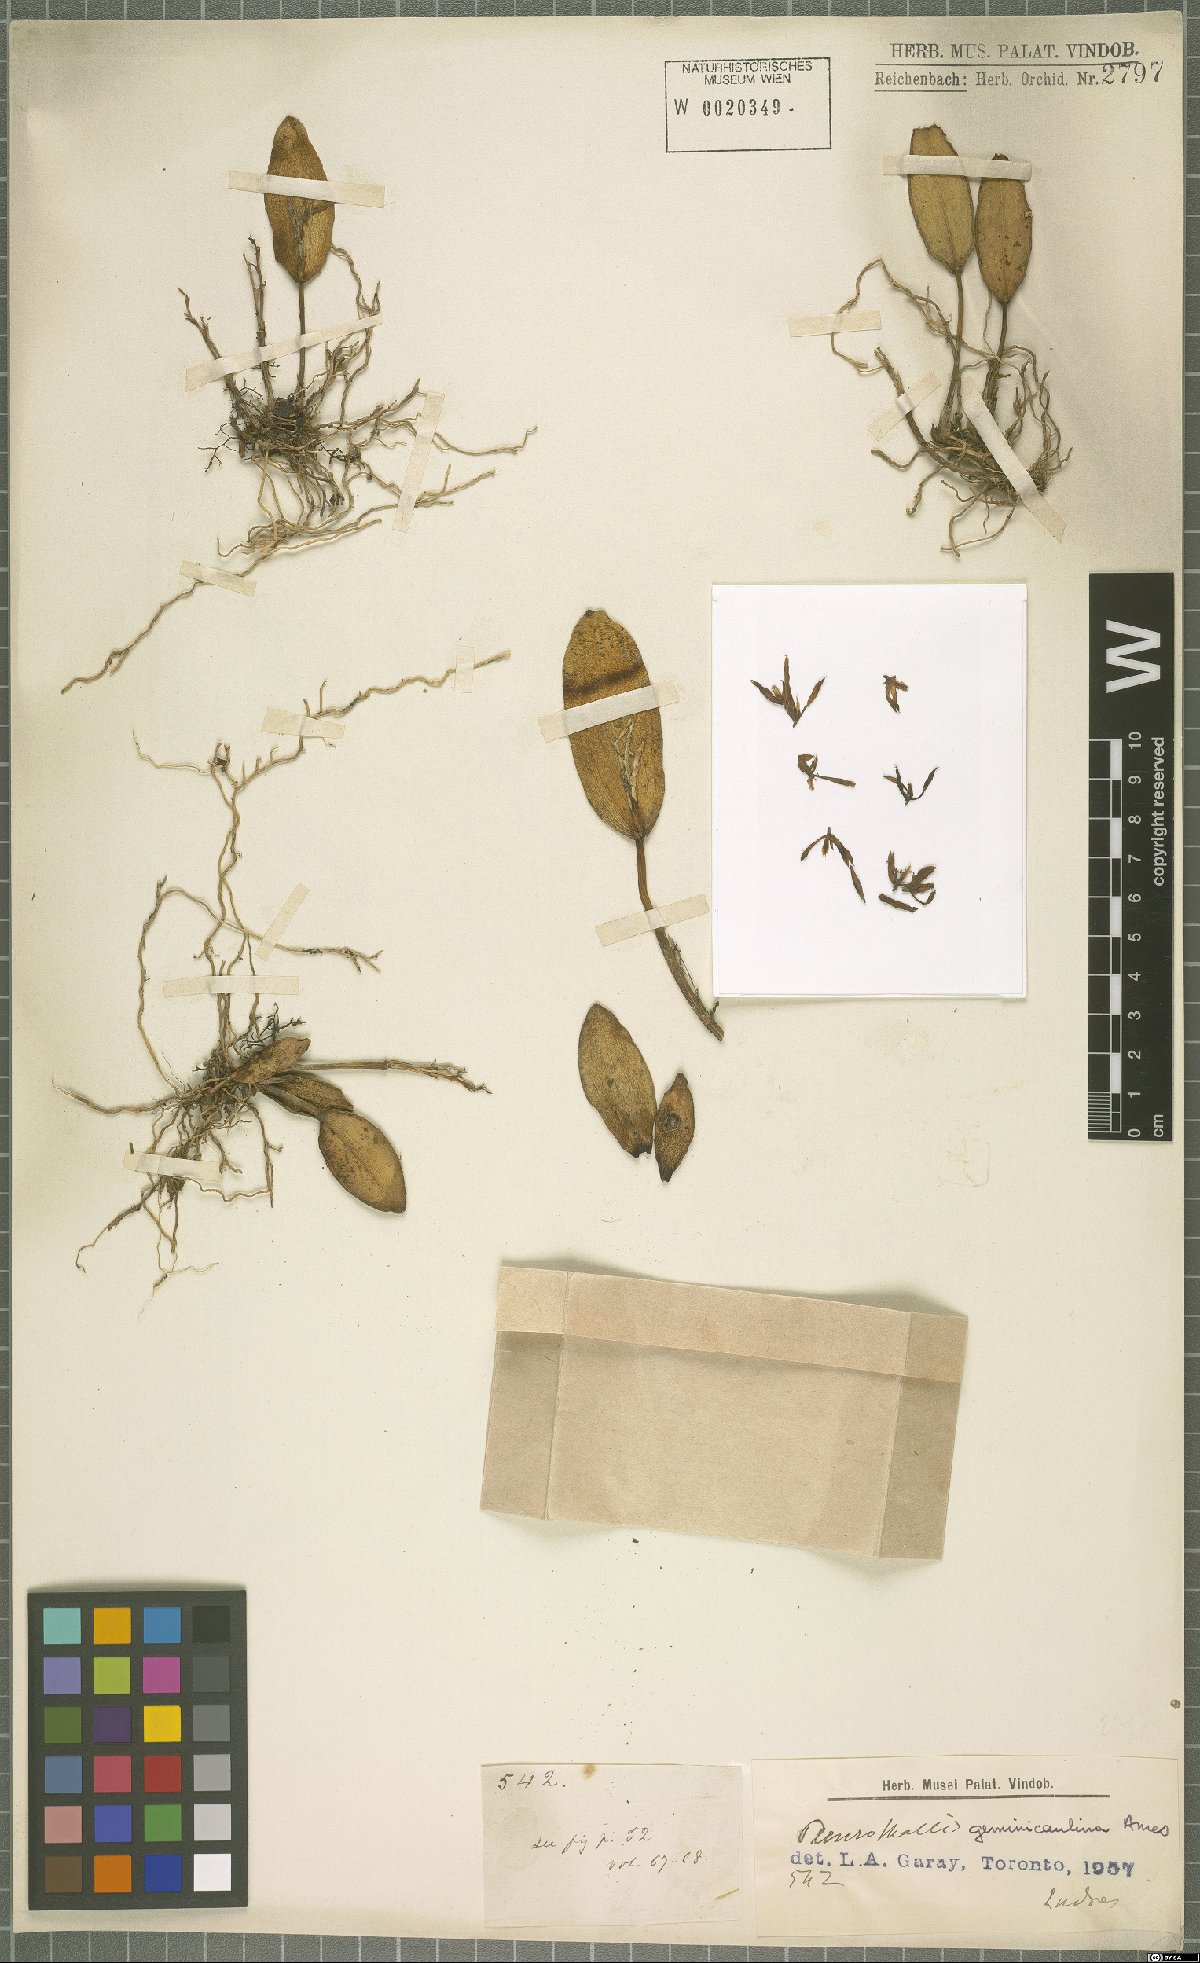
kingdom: Plantae
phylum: Tracheophyta
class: Liliopsida
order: Asparagales
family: Orchidaceae
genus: Acianthera
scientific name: Acianthera geminicaulina
